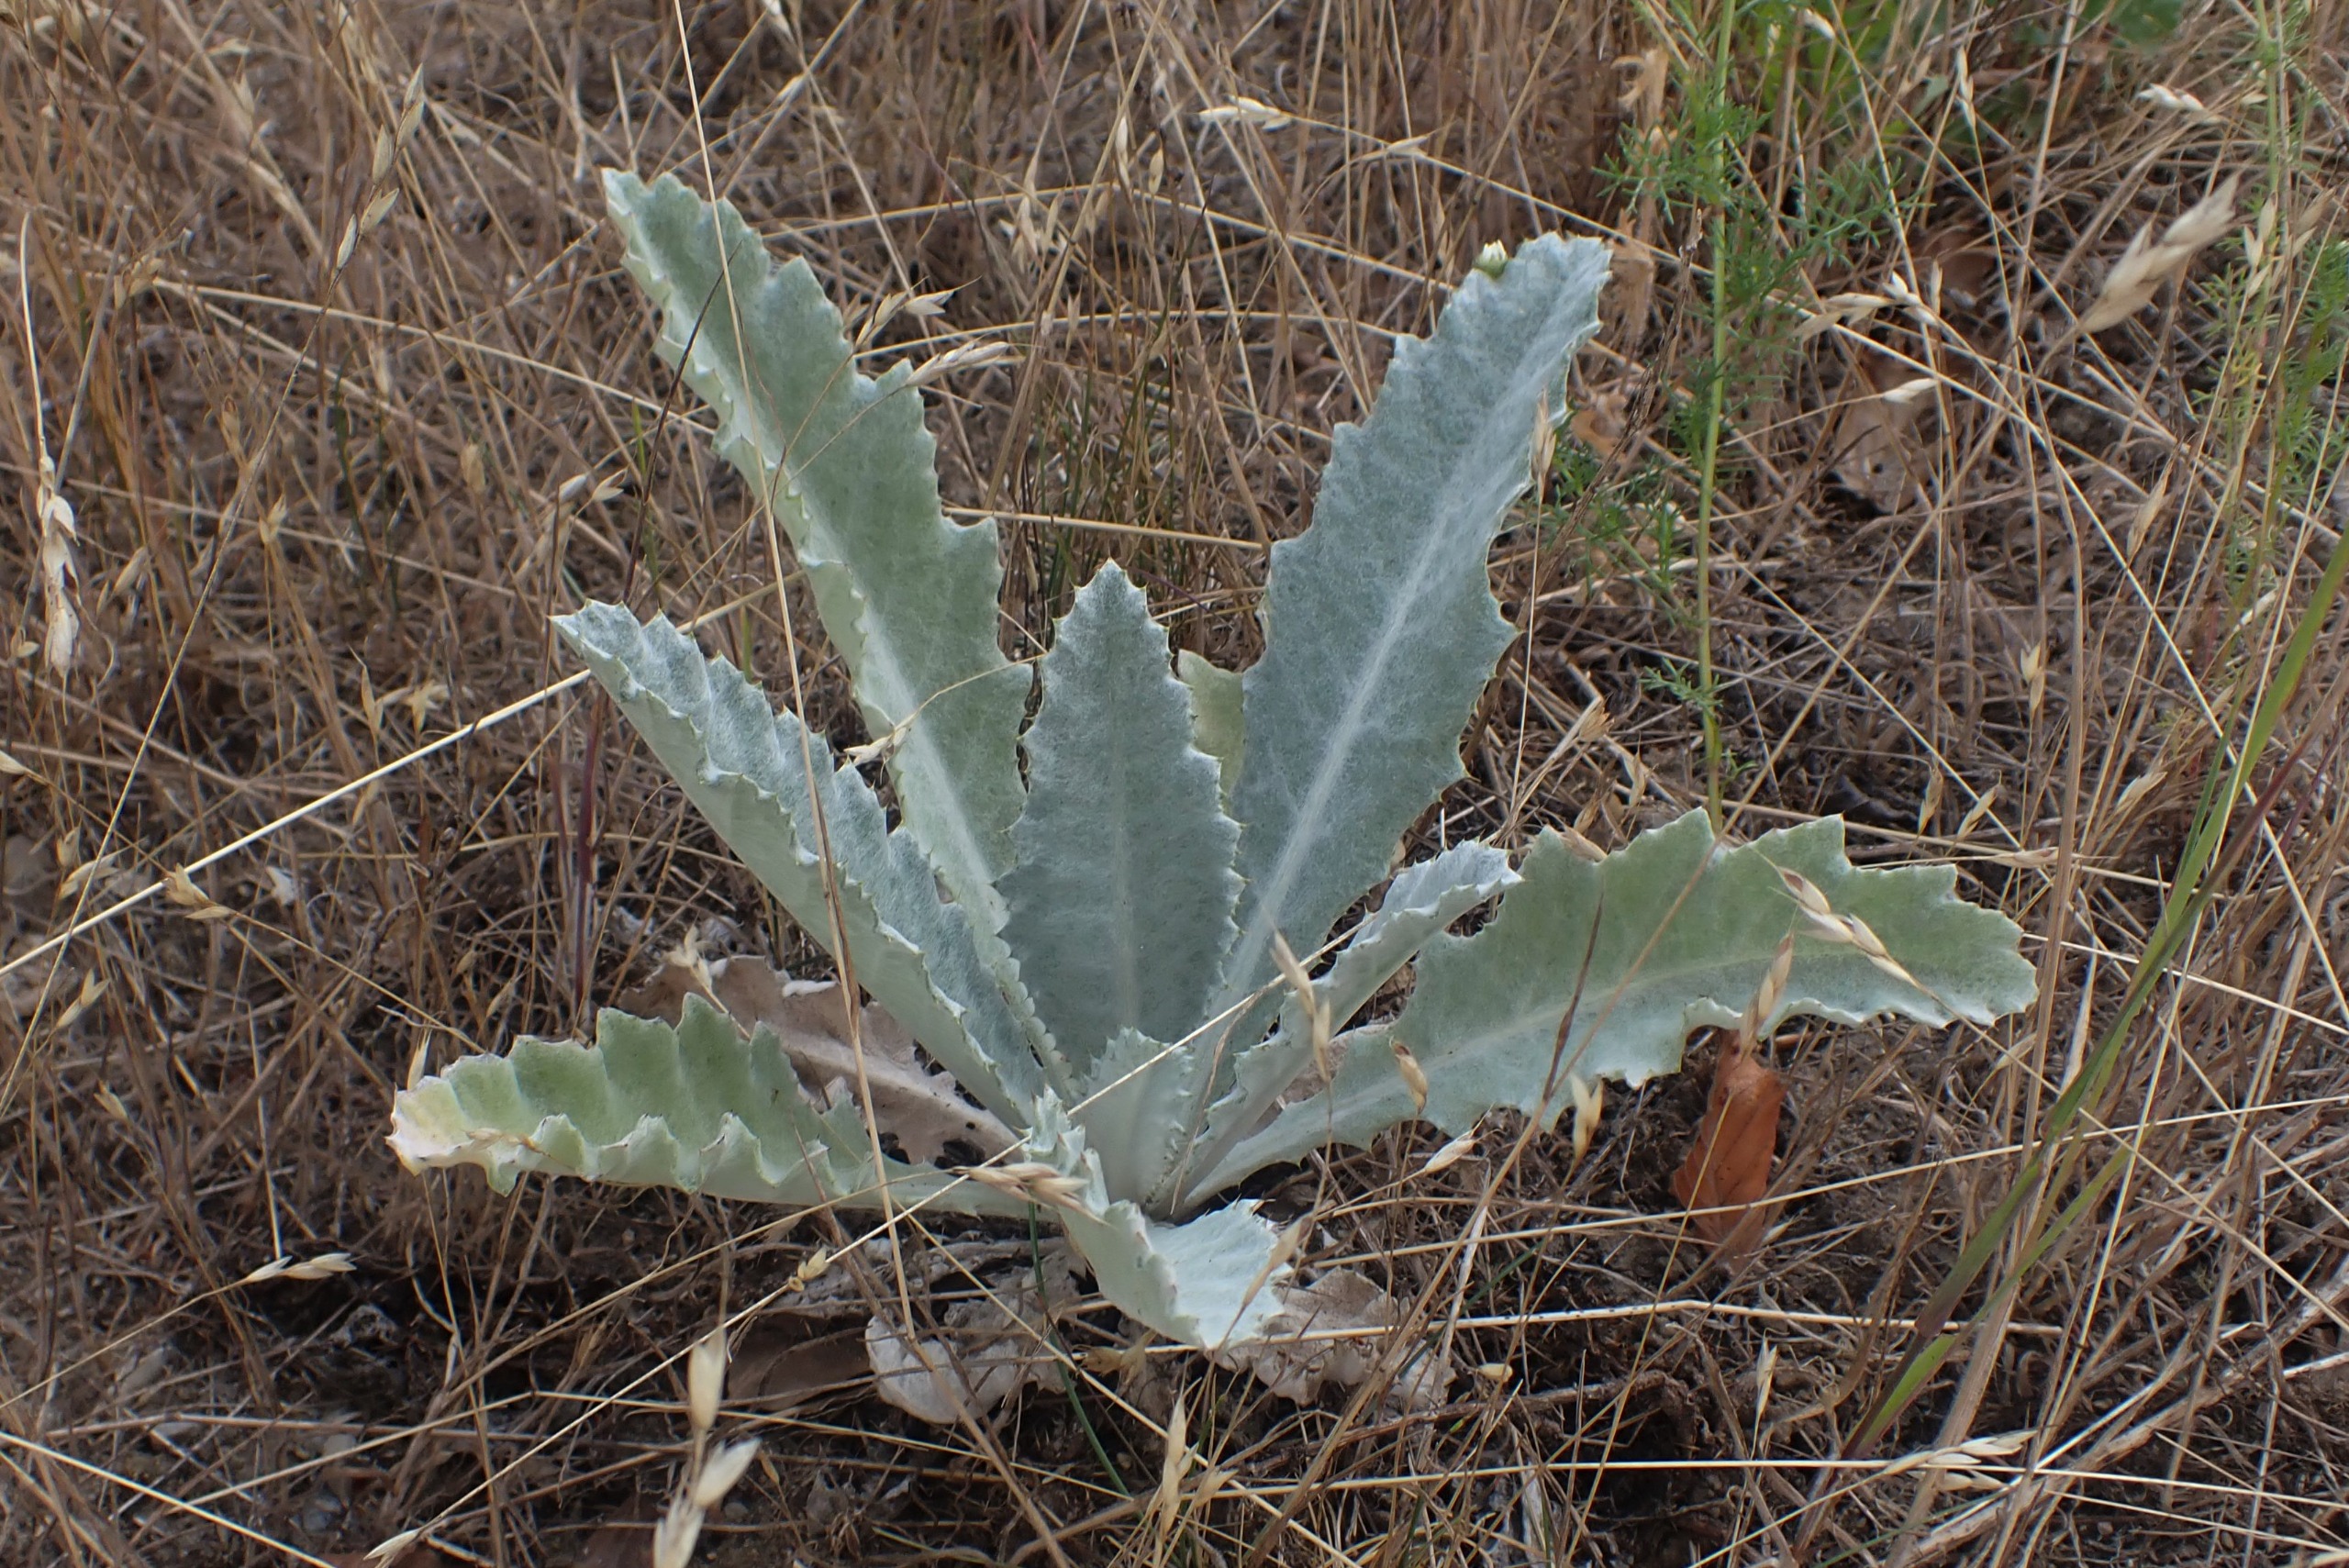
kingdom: Plantae
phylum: Tracheophyta
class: Magnoliopsida
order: Asterales
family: Asteraceae
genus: Onopordum
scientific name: Onopordum acanthium
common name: Æselfoder
